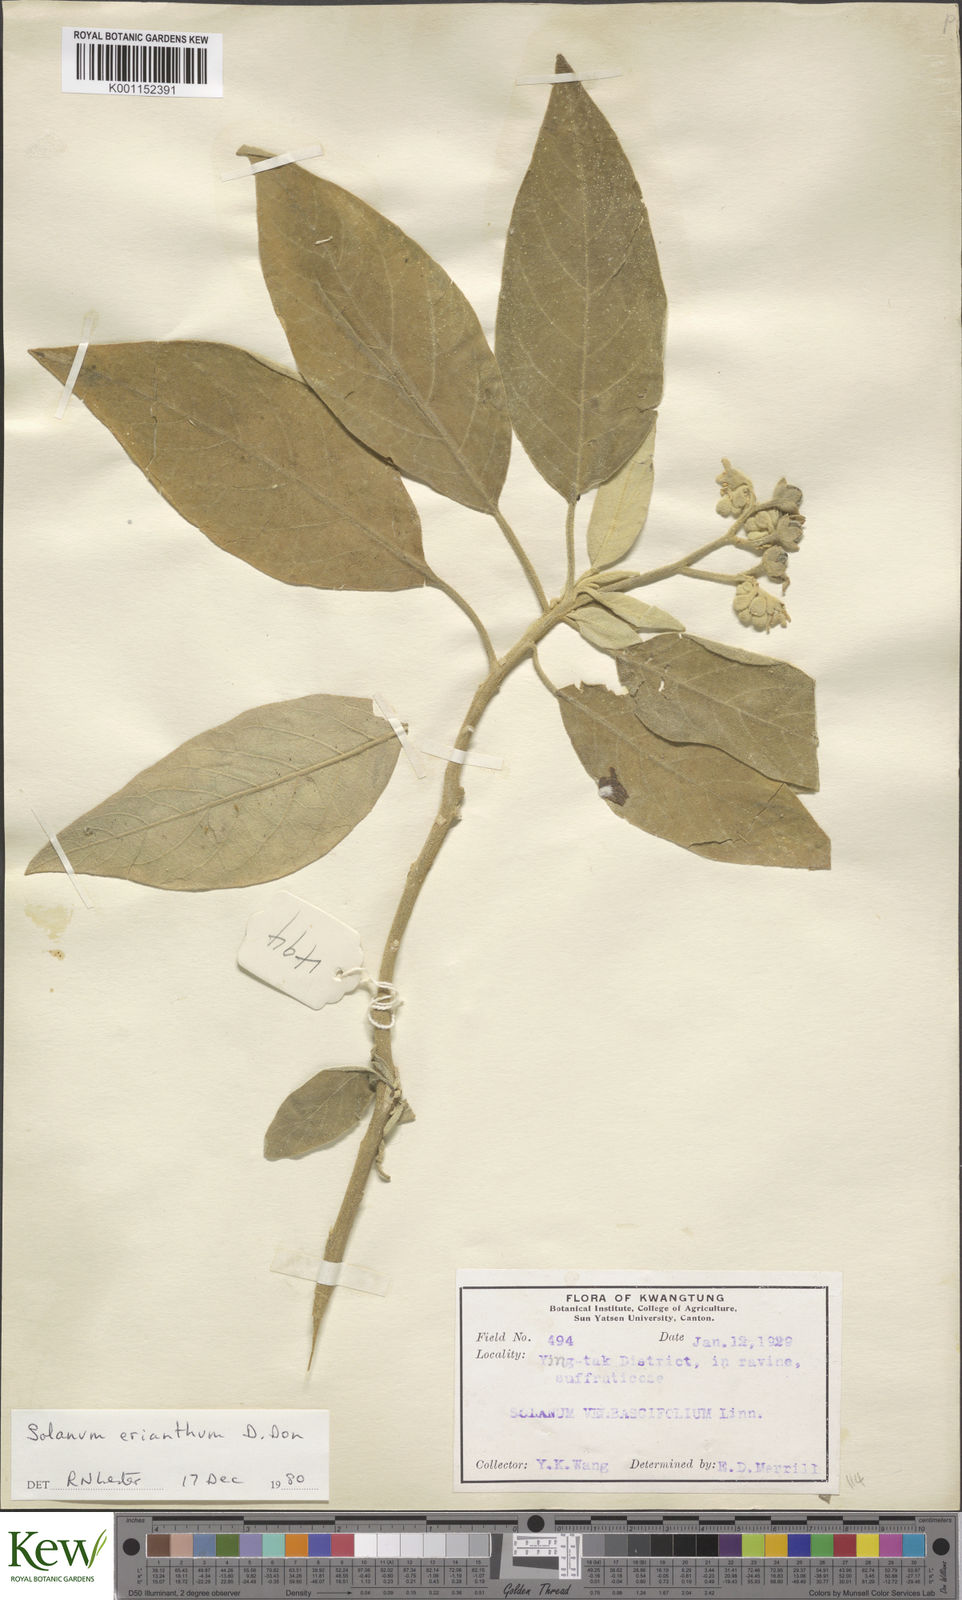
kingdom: Plantae
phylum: Tracheophyta
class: Magnoliopsida
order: Solanales
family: Solanaceae
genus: Solanum
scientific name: Solanum erianthum
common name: Tobacco-tree
